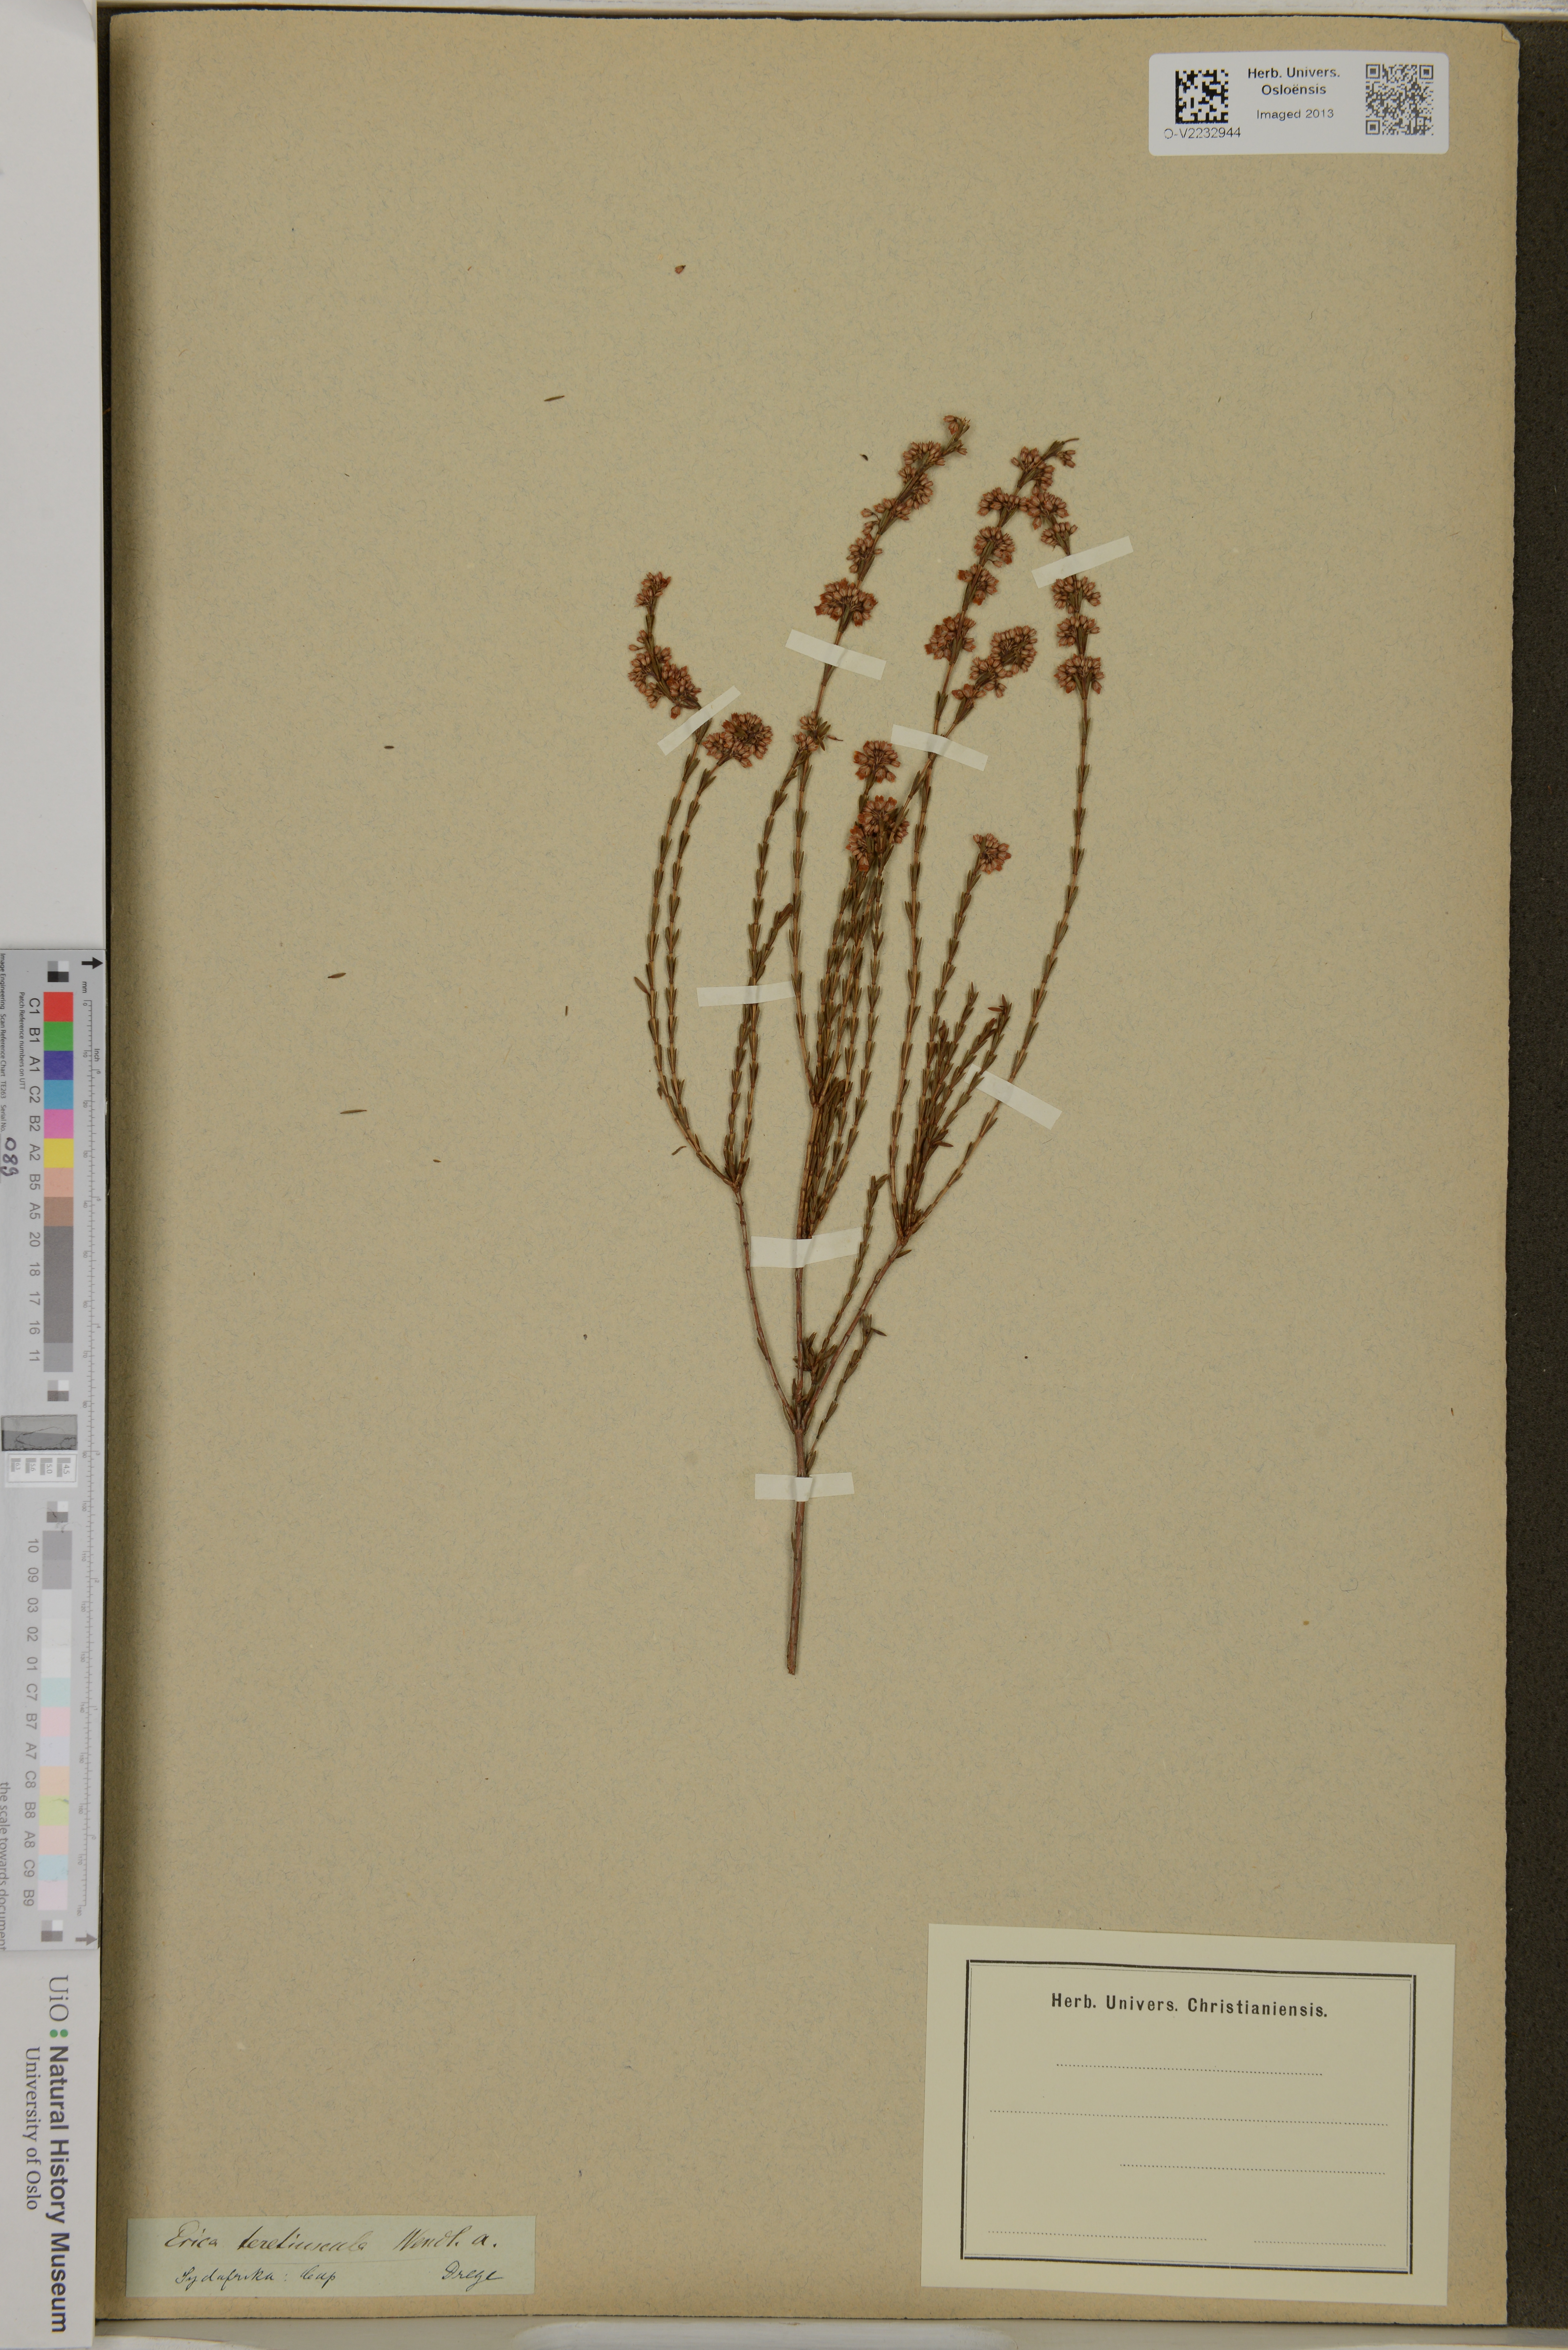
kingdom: Plantae
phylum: Tracheophyta
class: Magnoliopsida
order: Ericales
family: Ericaceae
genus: Erica
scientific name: Erica articularis
